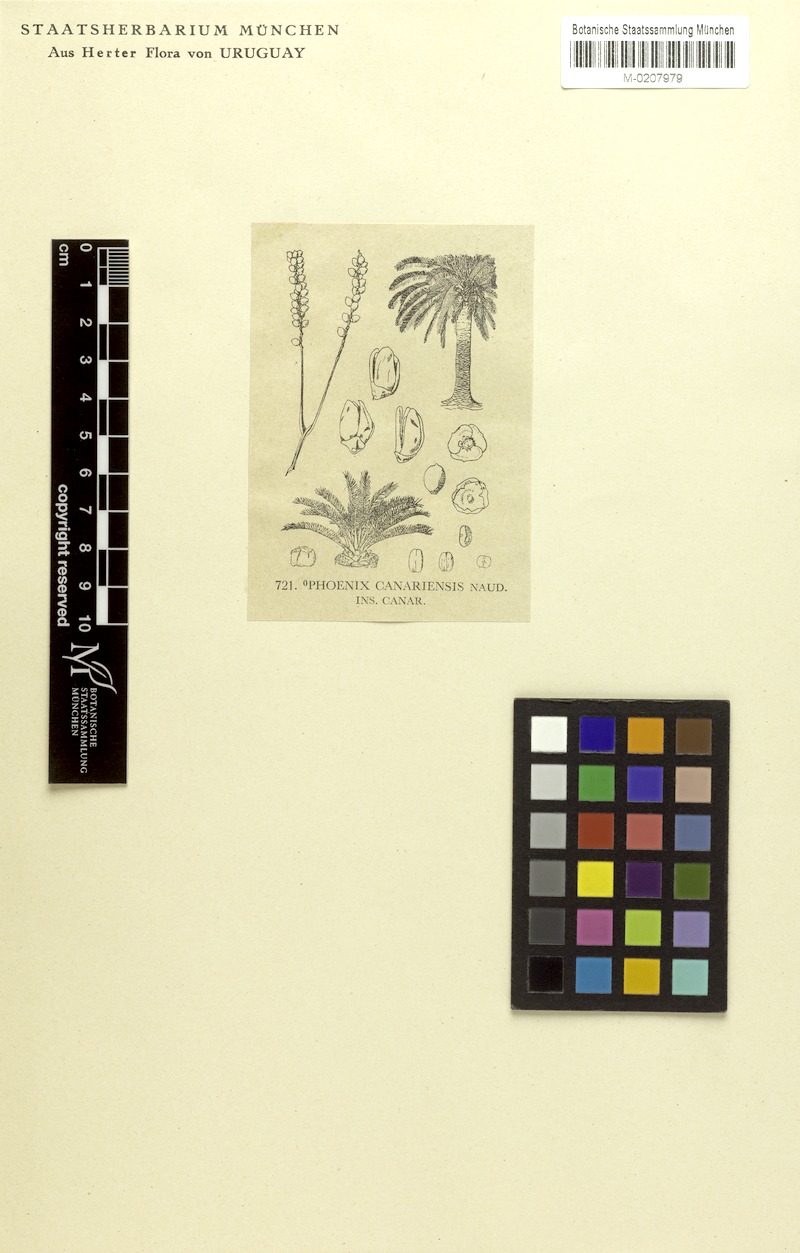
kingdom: Plantae
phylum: Tracheophyta
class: Liliopsida
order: Arecales
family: Arecaceae
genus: Phoenix
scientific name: Phoenix canariensis
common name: Canary island date palm
